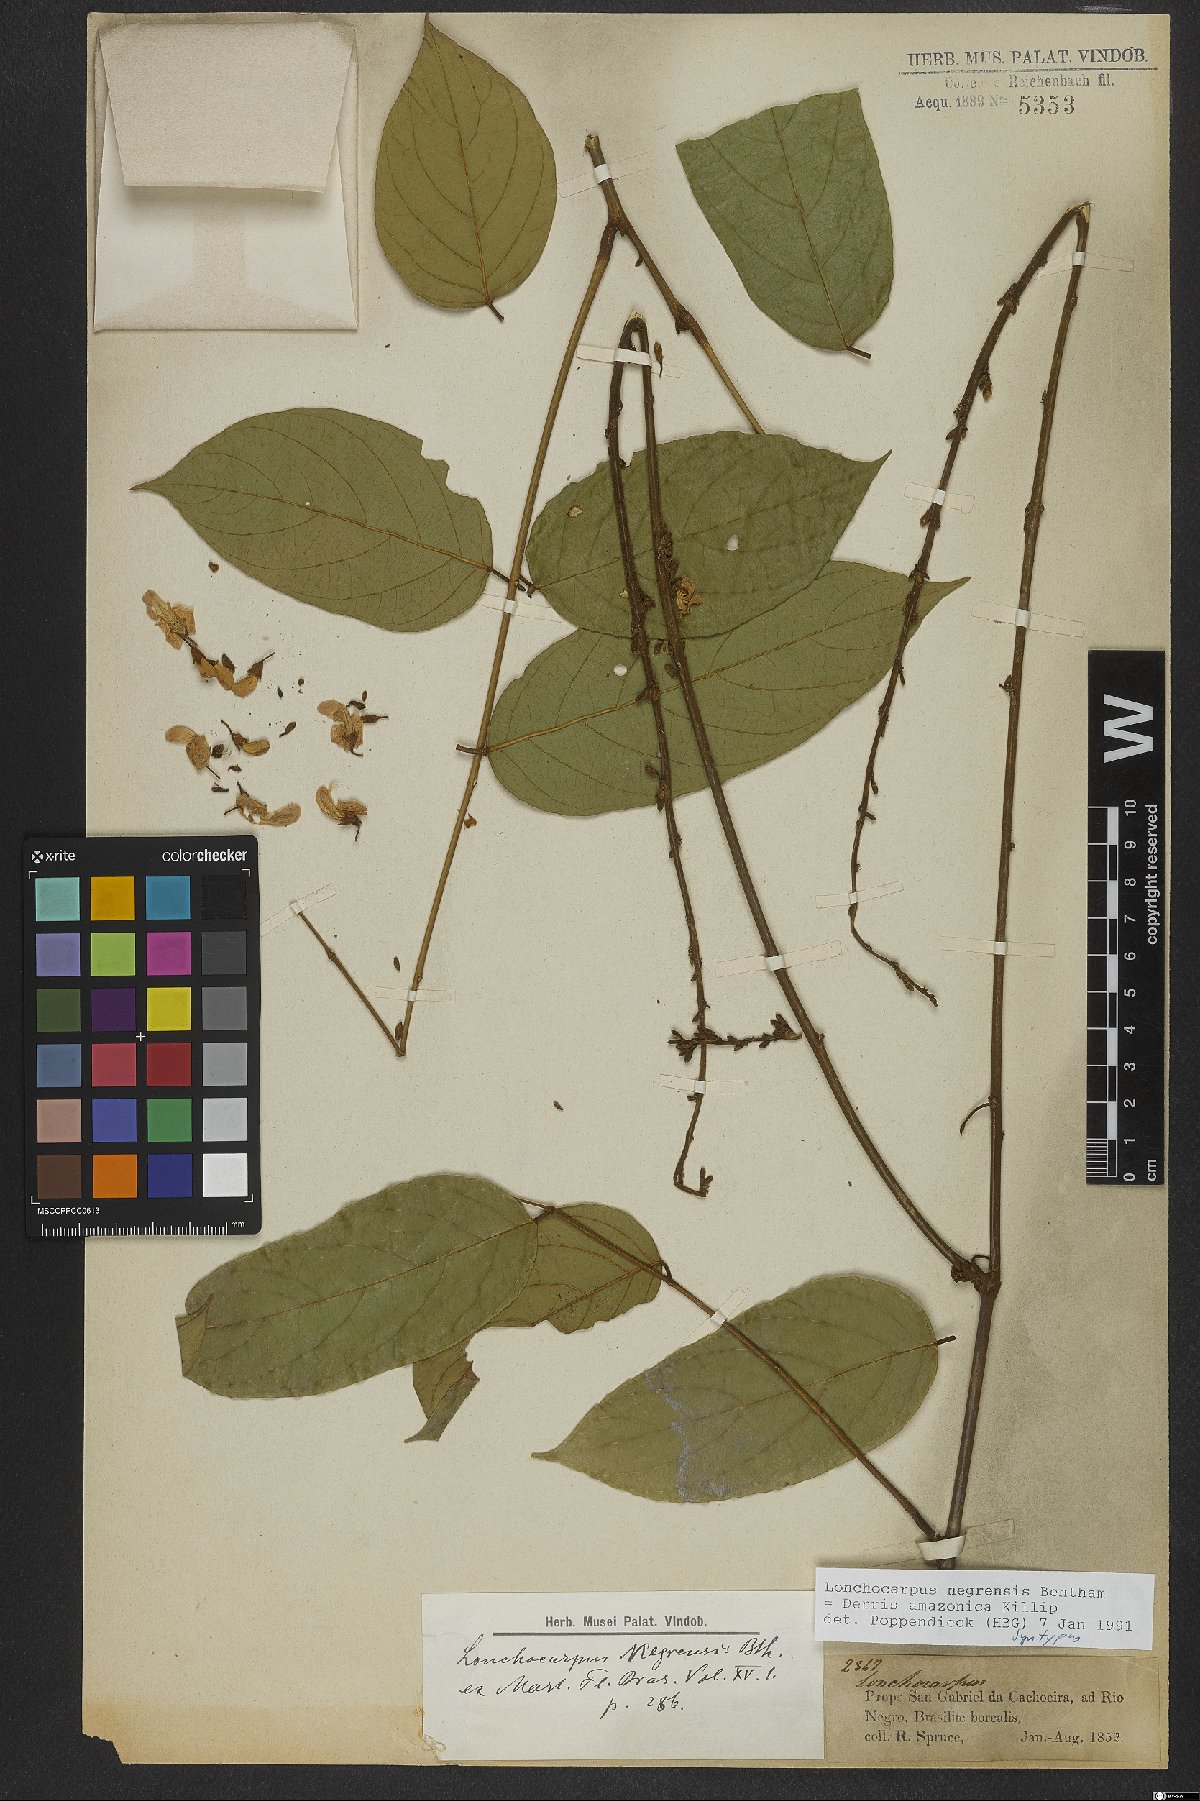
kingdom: Plantae
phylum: Tracheophyta
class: Magnoliopsida
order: Fabales
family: Fabaceae
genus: Deguelia
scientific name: Deguelia amazonica
